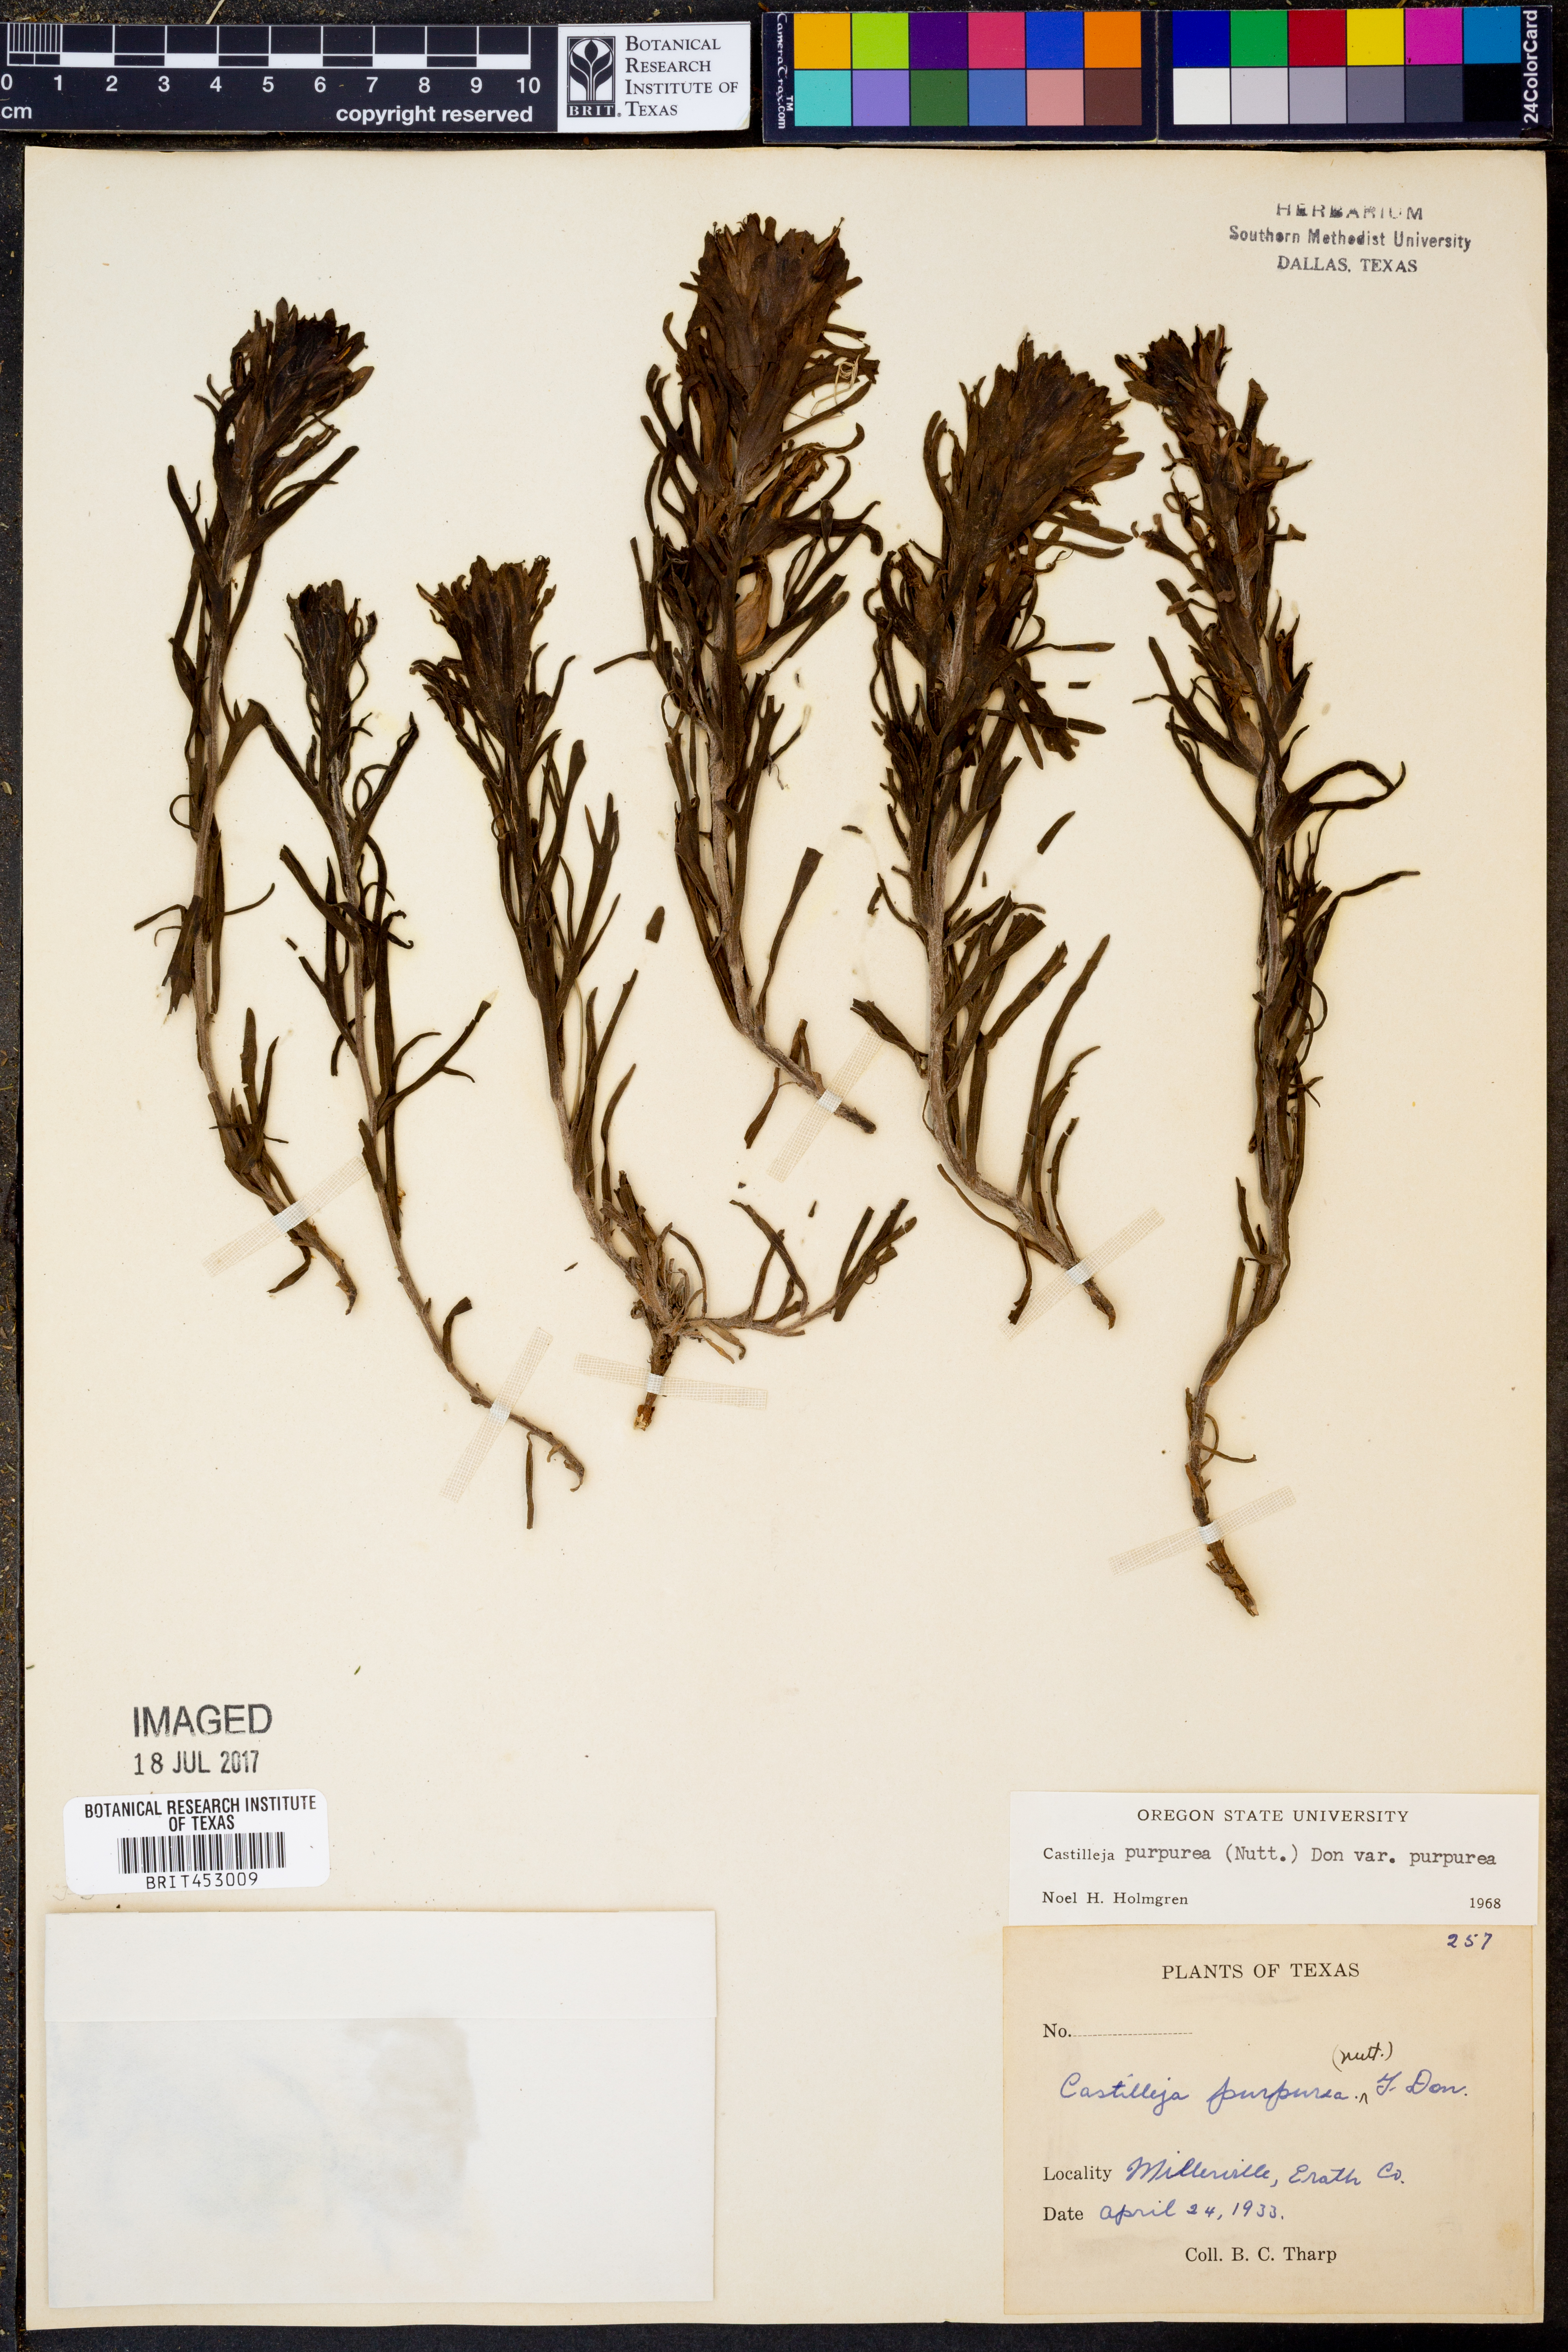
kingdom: Plantae
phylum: Tracheophyta
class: Magnoliopsida
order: Lamiales
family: Orobanchaceae
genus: Castilleja
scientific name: Castilleja purpurea
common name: Plains paintbrush
